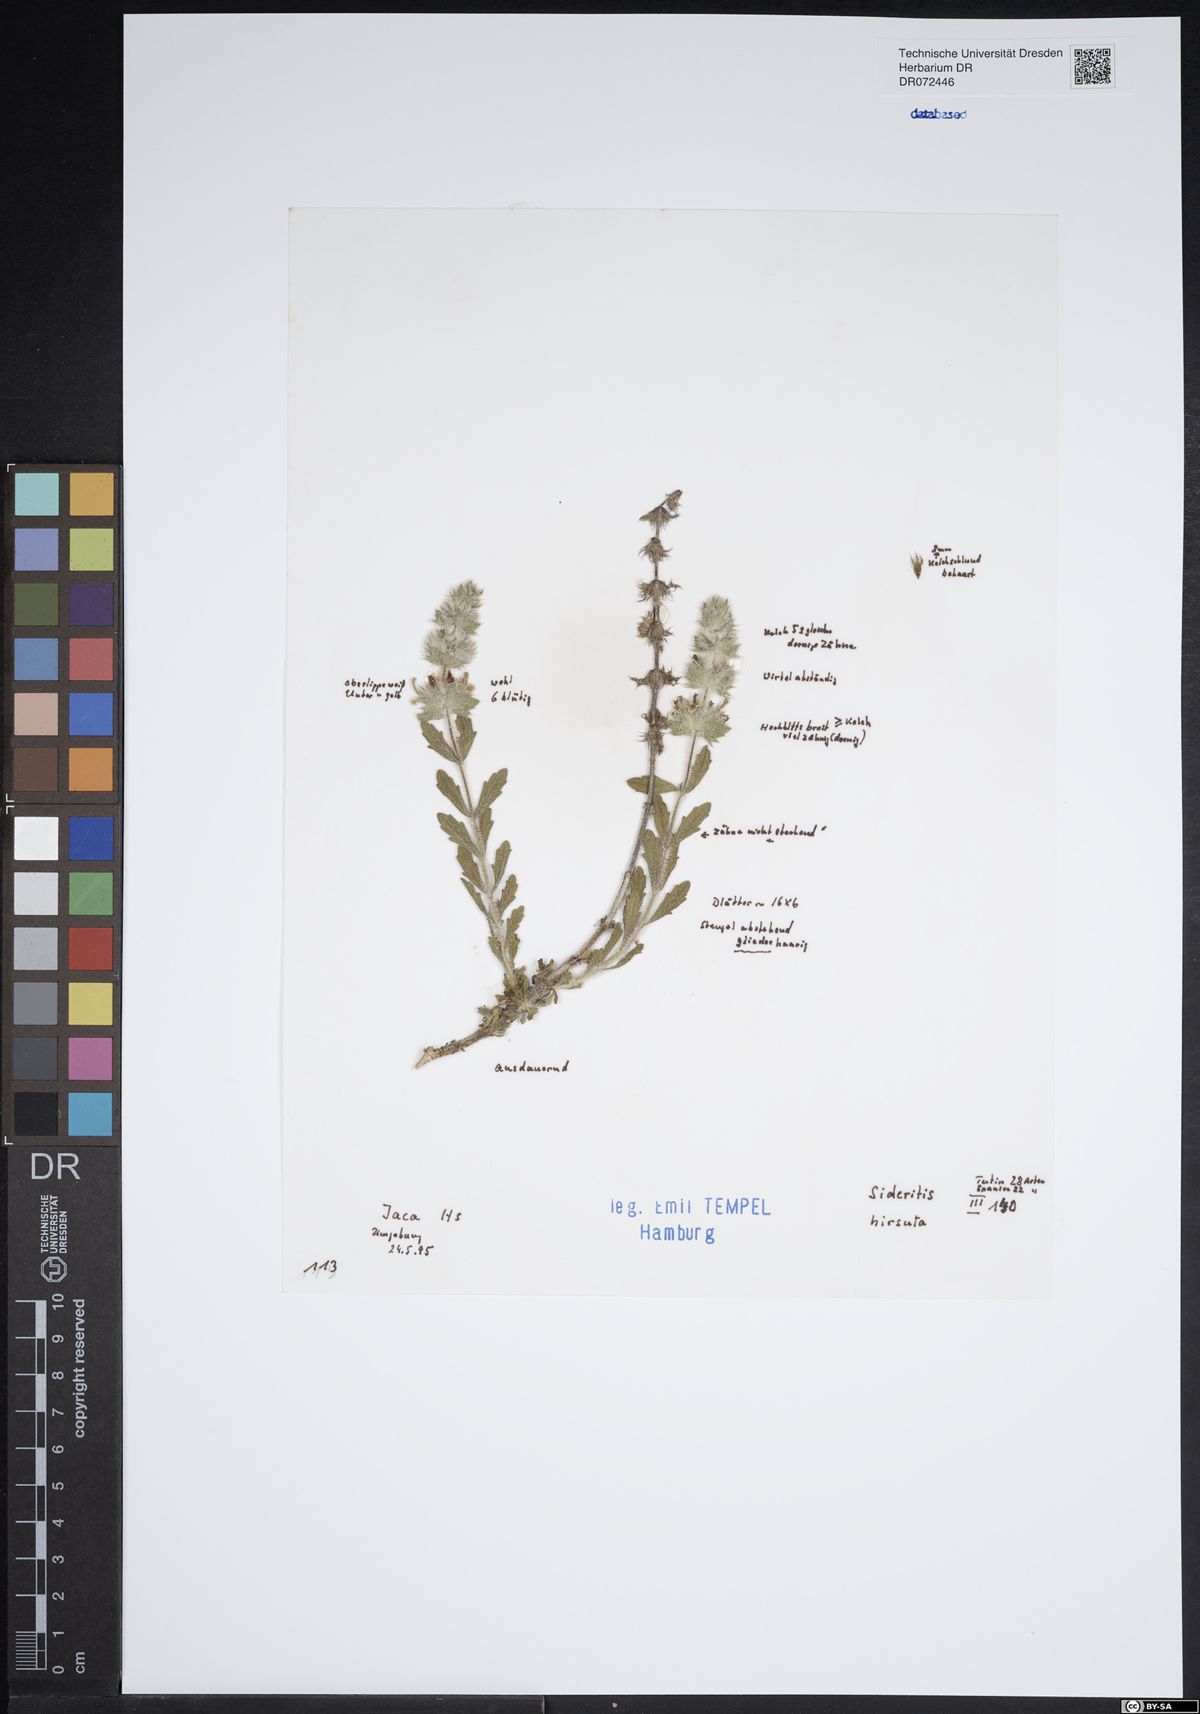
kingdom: Plantae
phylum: Tracheophyta
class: Magnoliopsida
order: Lamiales
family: Lamiaceae
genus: Sideritis
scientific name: Sideritis hirsuta
